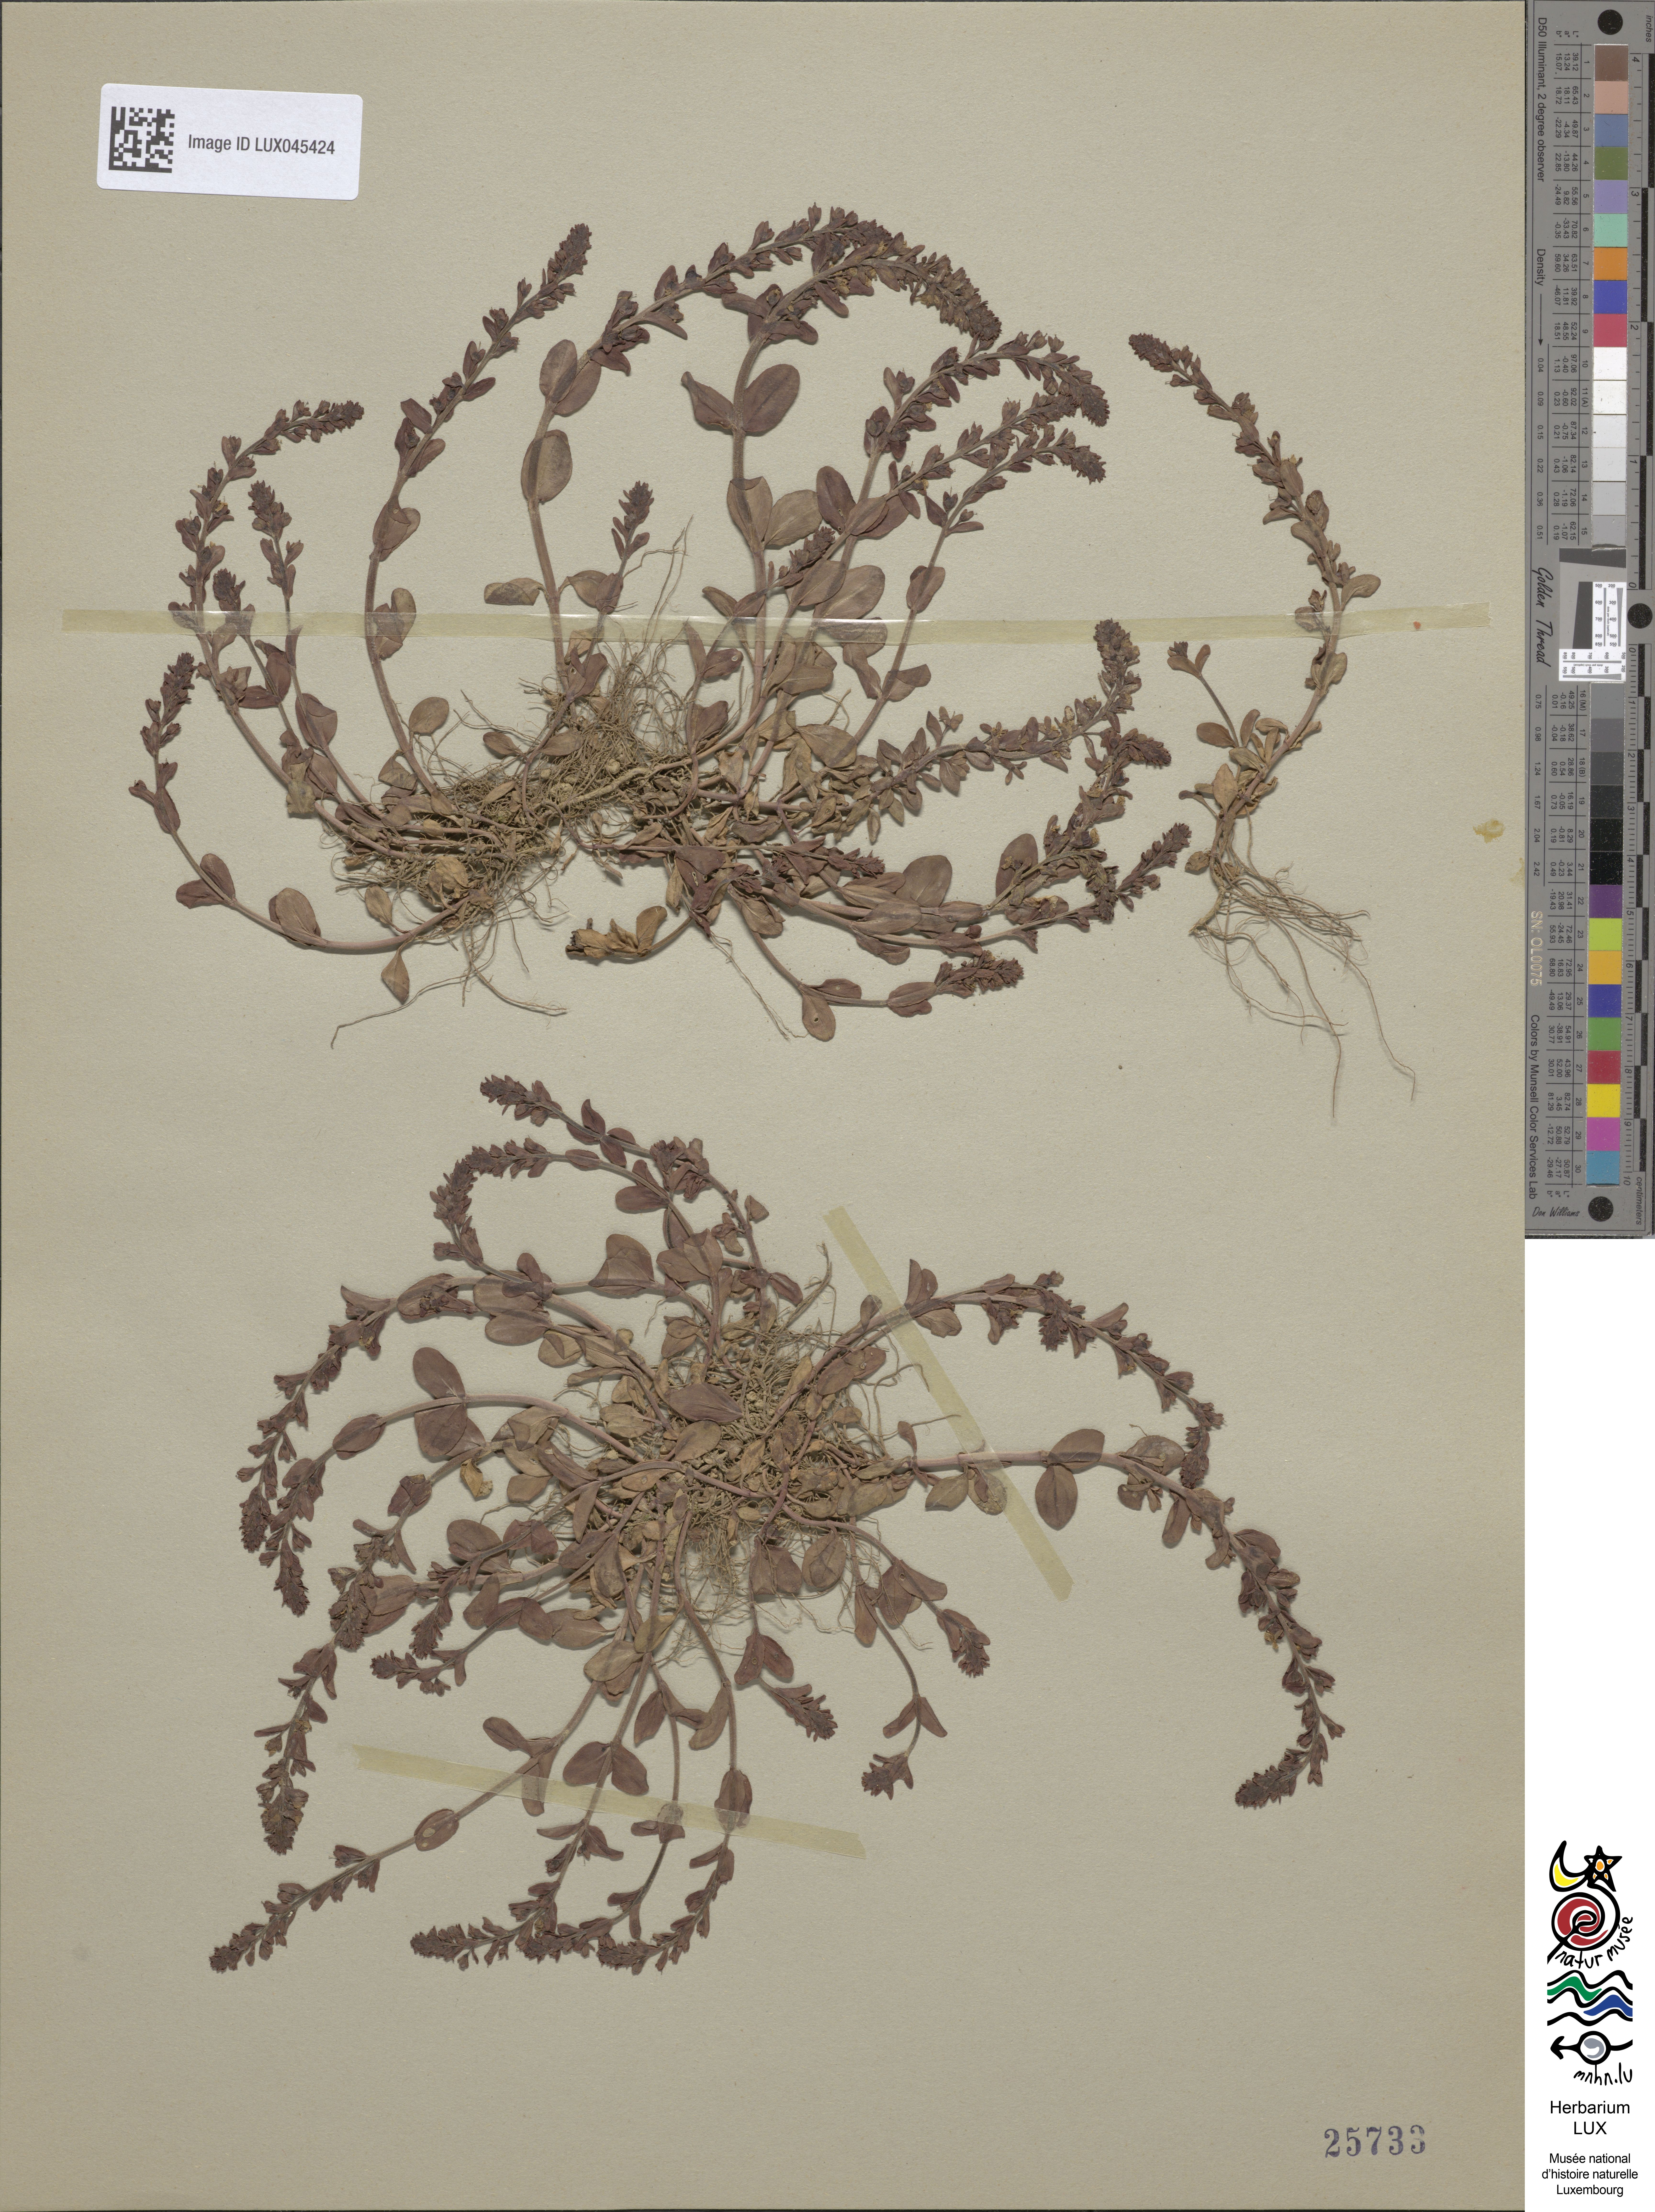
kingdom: Plantae
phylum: Tracheophyta
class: Magnoliopsida
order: Lamiales
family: Plantaginaceae
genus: Veronica
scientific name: Veronica serpyllifolia
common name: Thyme-leaved speedwell
